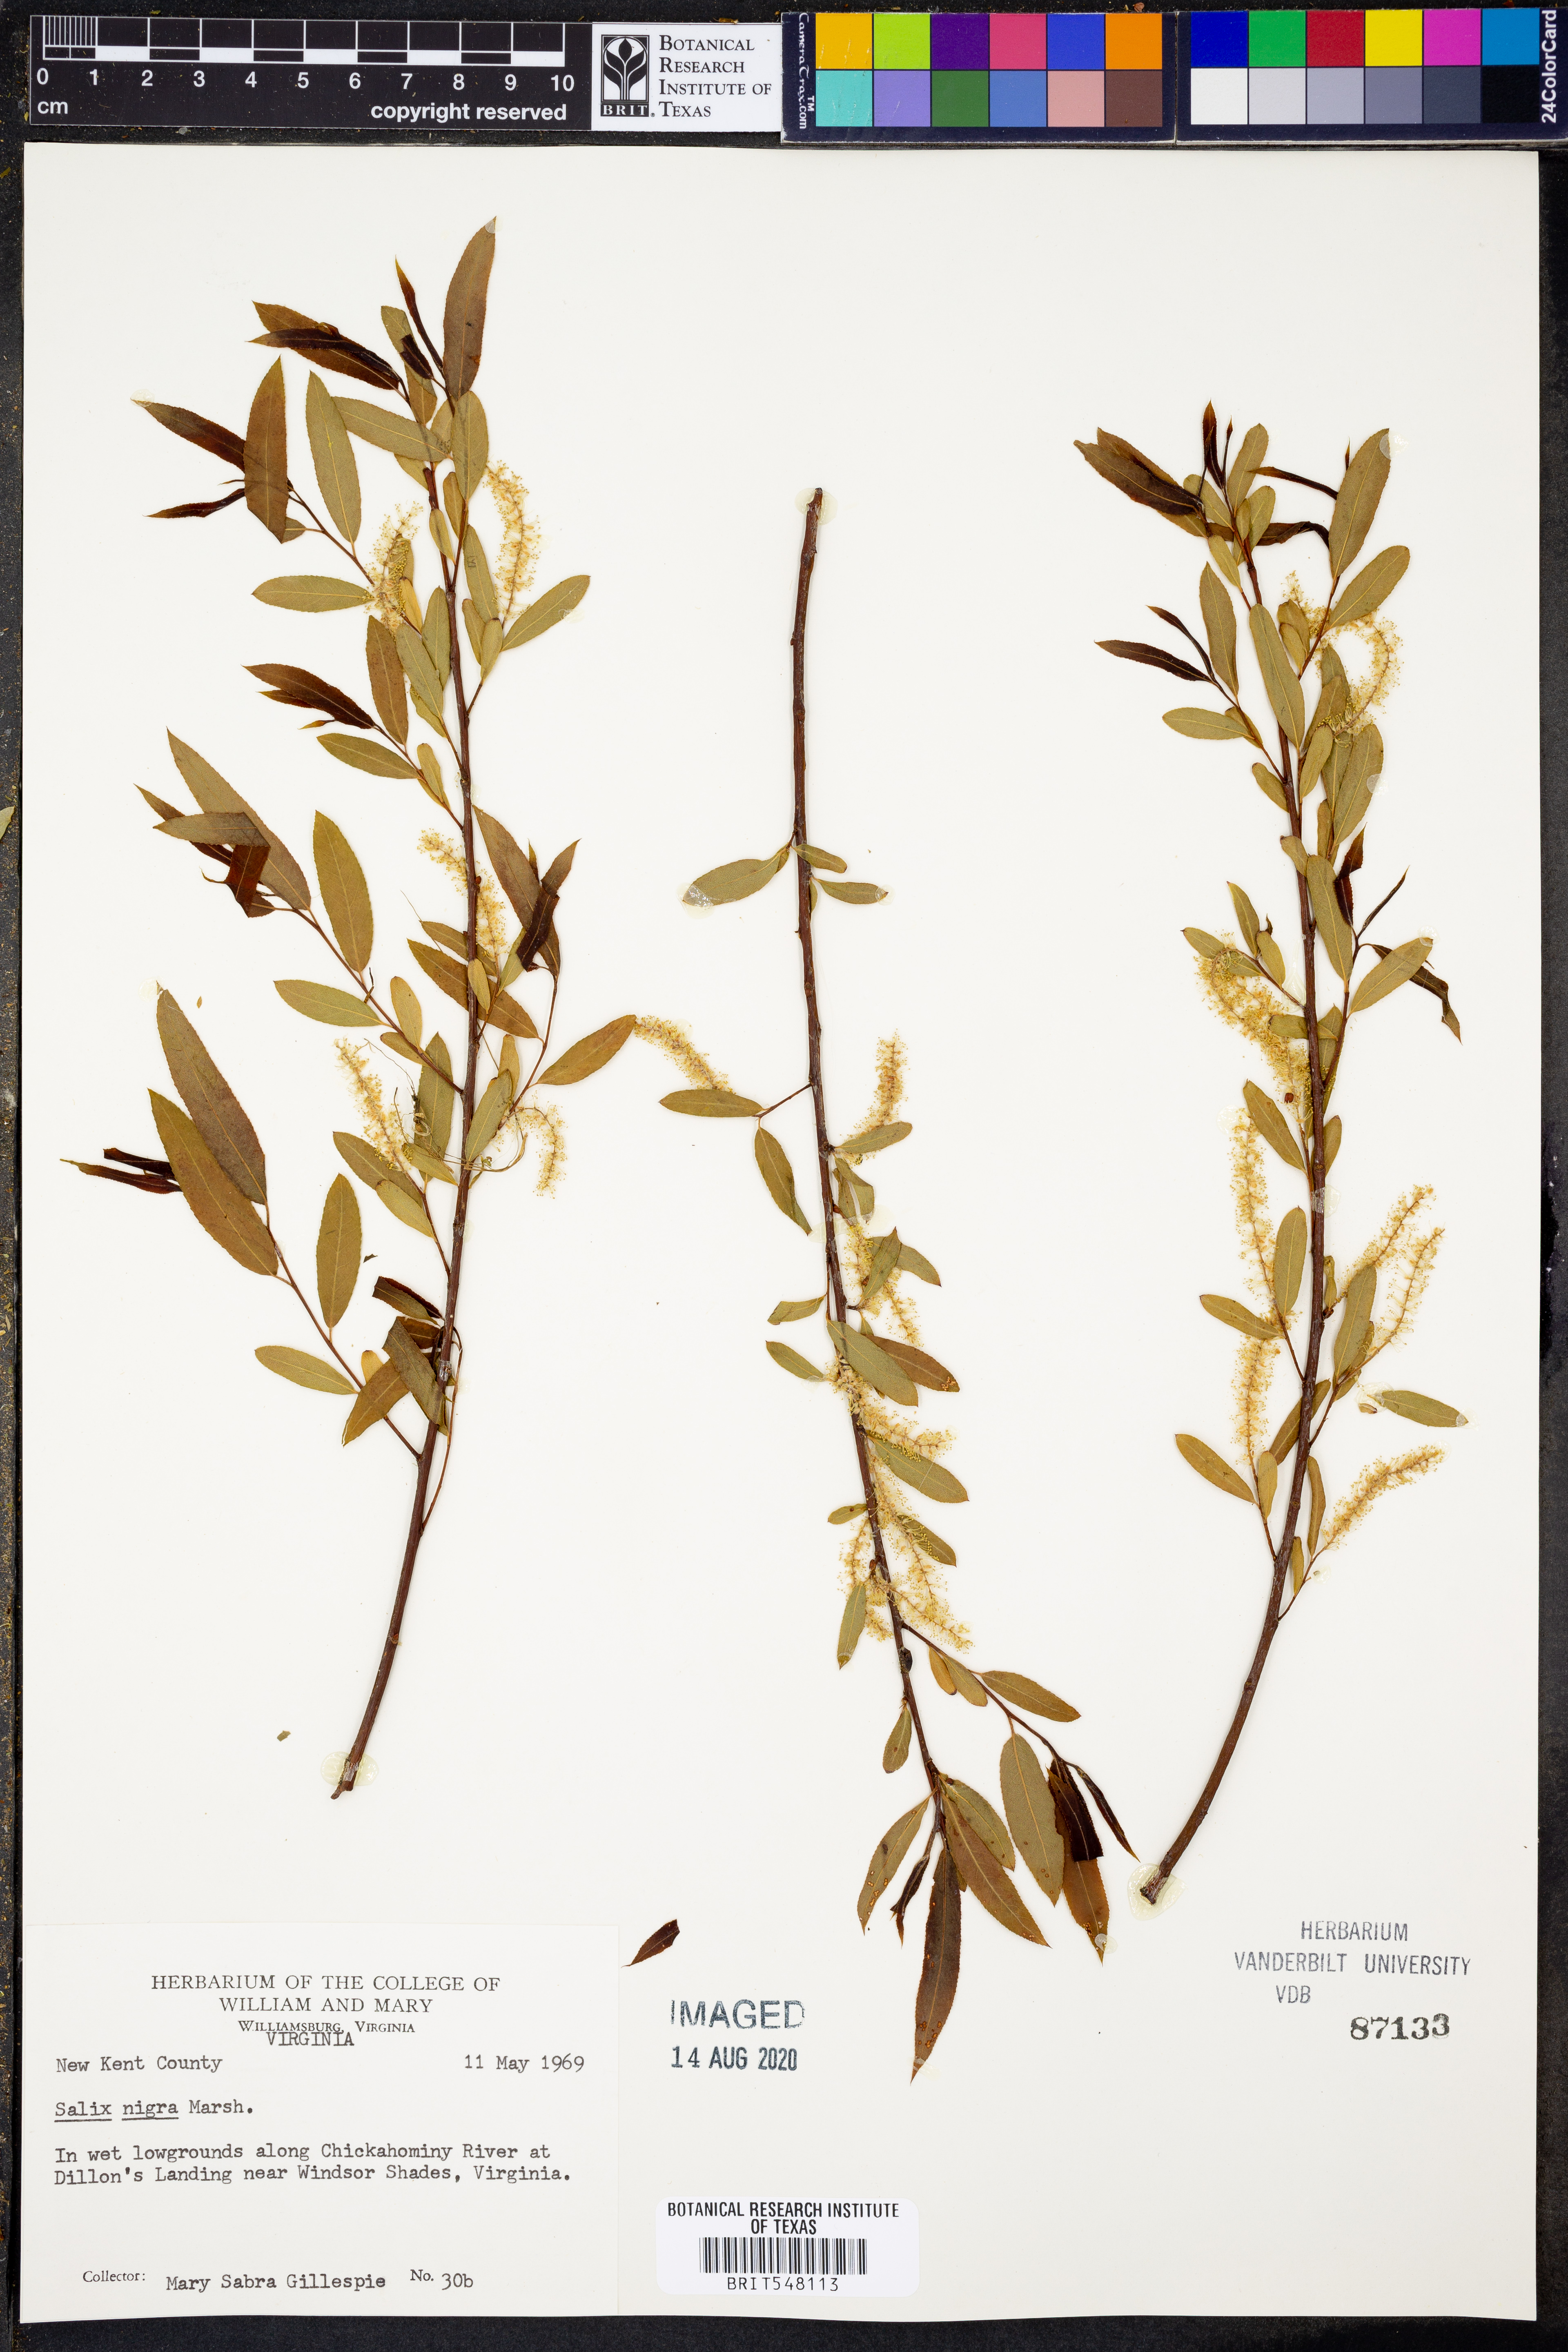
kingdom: Plantae
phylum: Tracheophyta
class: Magnoliopsida
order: Malpighiales
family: Salicaceae
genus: Salix
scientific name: Salix nigra
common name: Black willow
